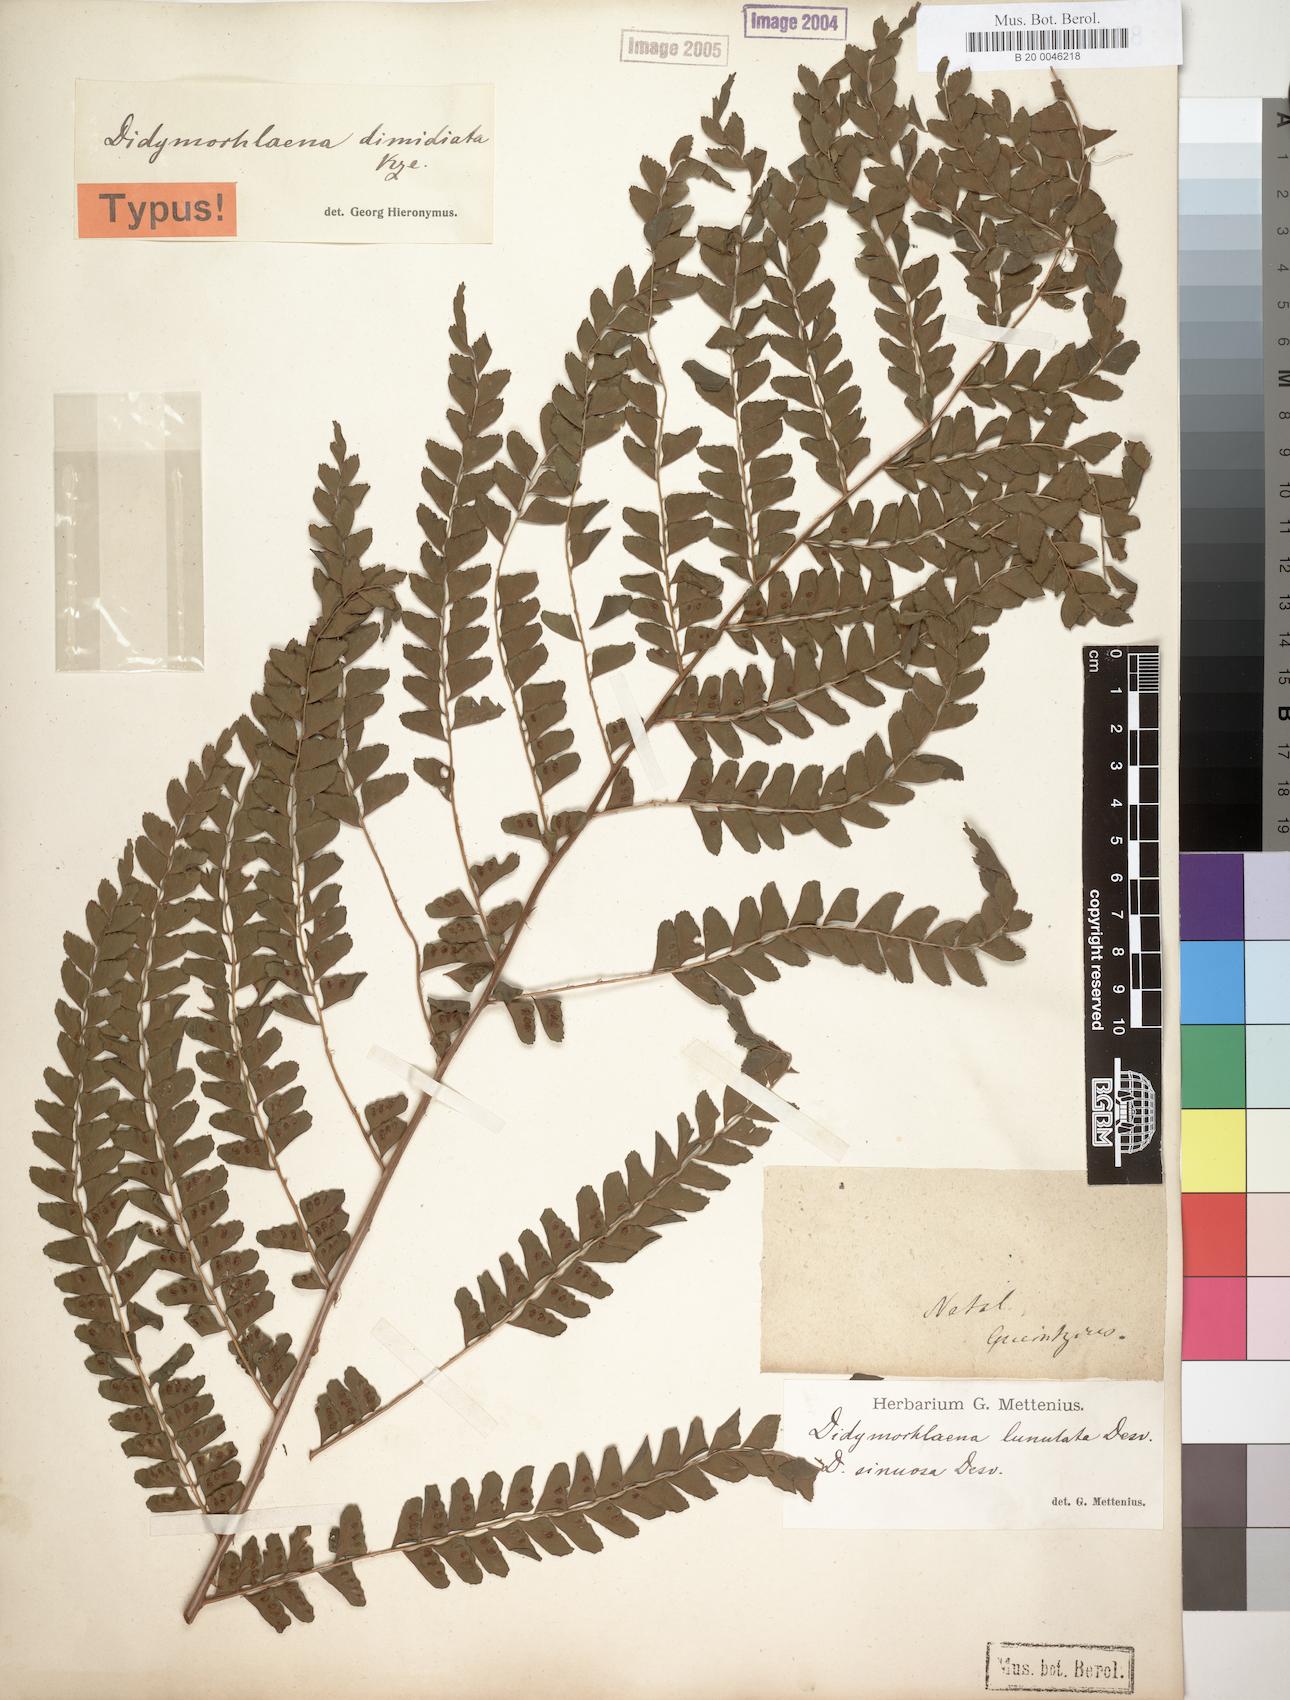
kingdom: Plantae
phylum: Tracheophyta
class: Polypodiopsida
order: Polypodiales
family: Didymochlaenaceae
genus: Didymochlaena
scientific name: Didymochlaena truncatula
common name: Mahogany fern
